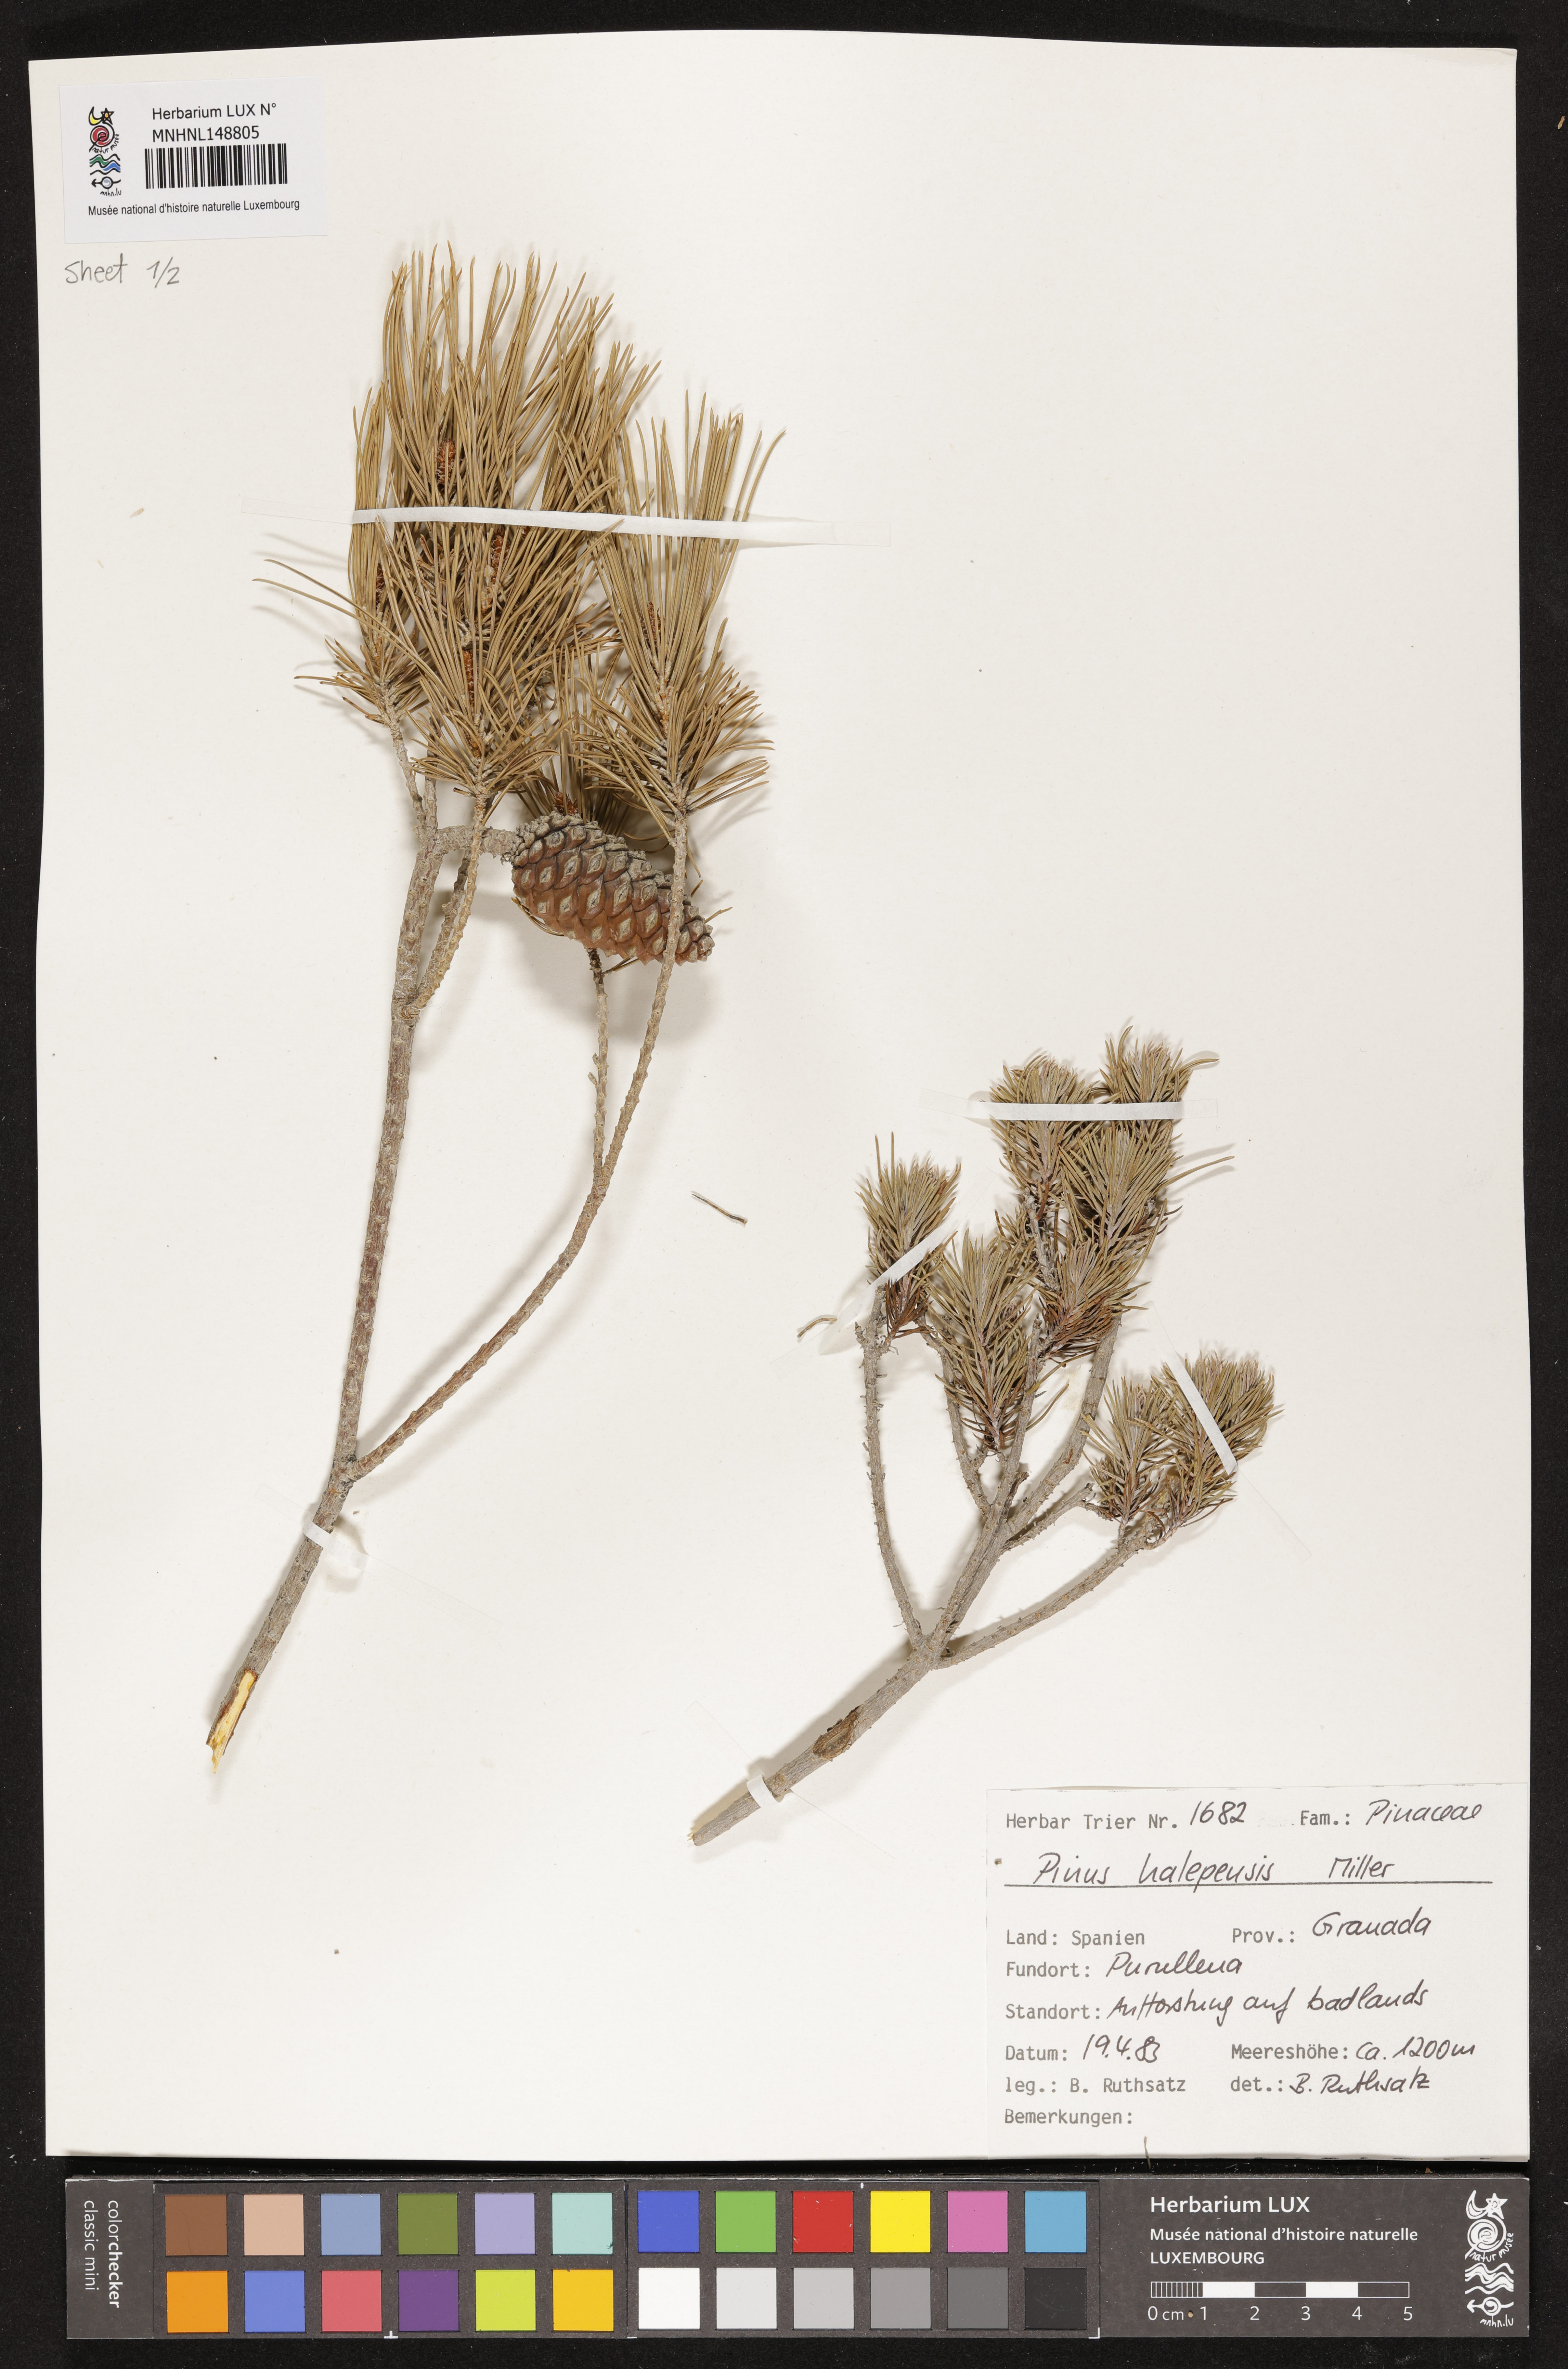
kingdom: Plantae
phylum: Tracheophyta
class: Pinopsida
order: Pinales
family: Pinaceae
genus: Pinus
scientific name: Pinus halepensis
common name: Aleppo pine
